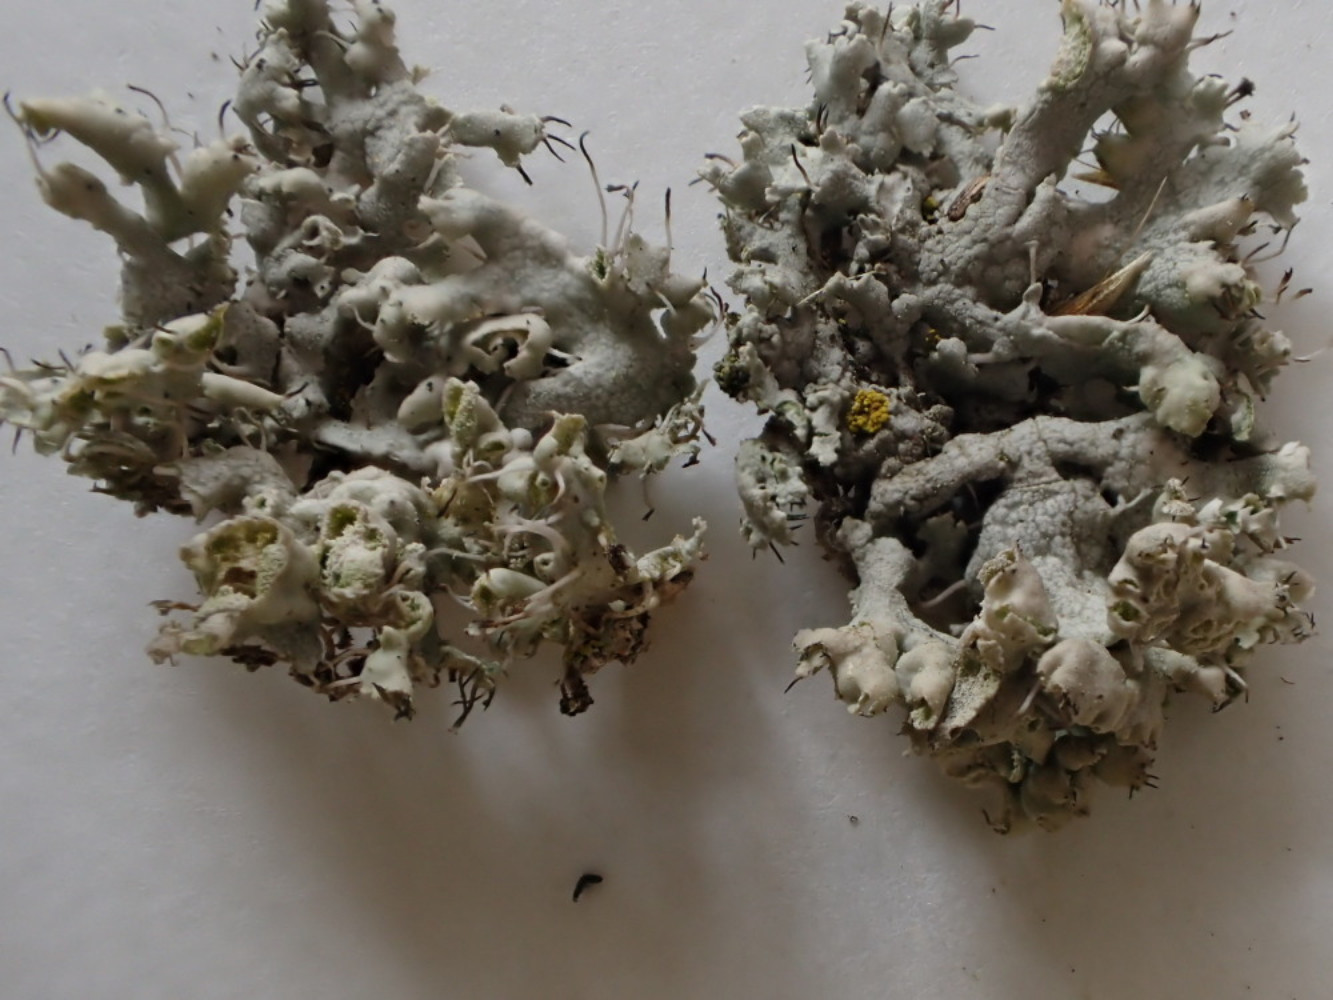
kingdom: Fungi
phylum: Ascomycota
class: Lecanoromycetes
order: Caliciales
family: Physciaceae
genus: Physcia
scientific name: Physcia adscendens
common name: hætte-rosetlav
